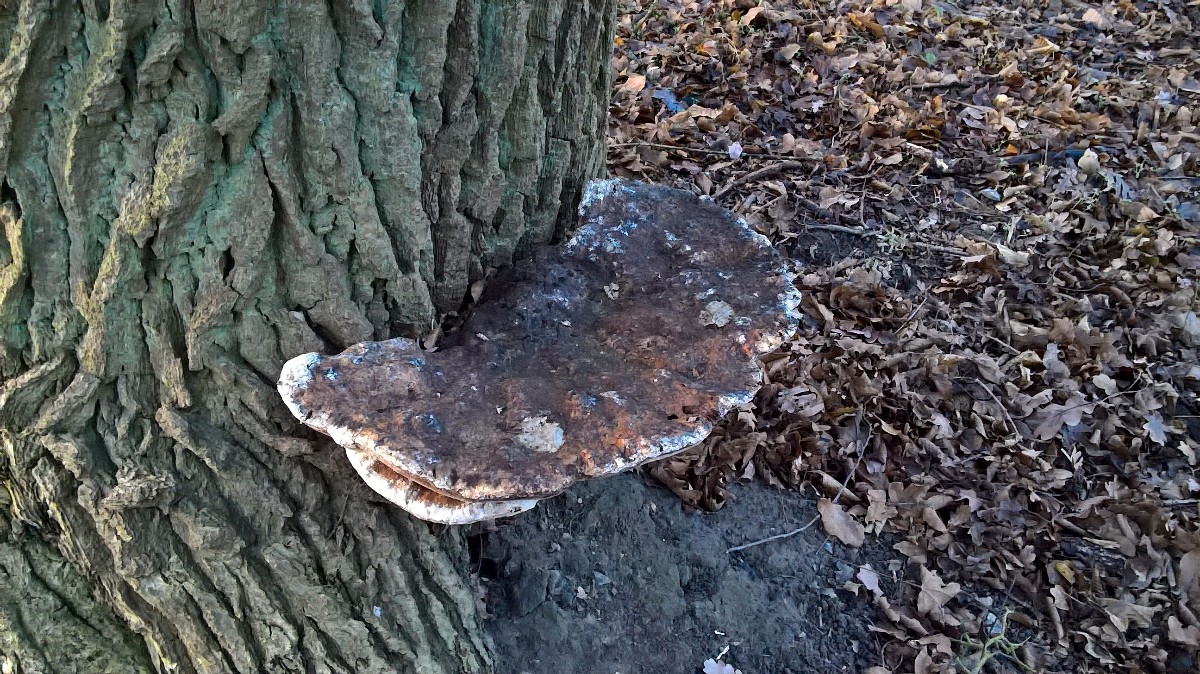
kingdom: Fungi
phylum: Basidiomycota
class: Agaricomycetes
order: Hymenochaetales
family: Hymenochaetaceae
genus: Pseudoinonotus
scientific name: Pseudoinonotus dryadeus
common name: ege-spejlporesvamp
